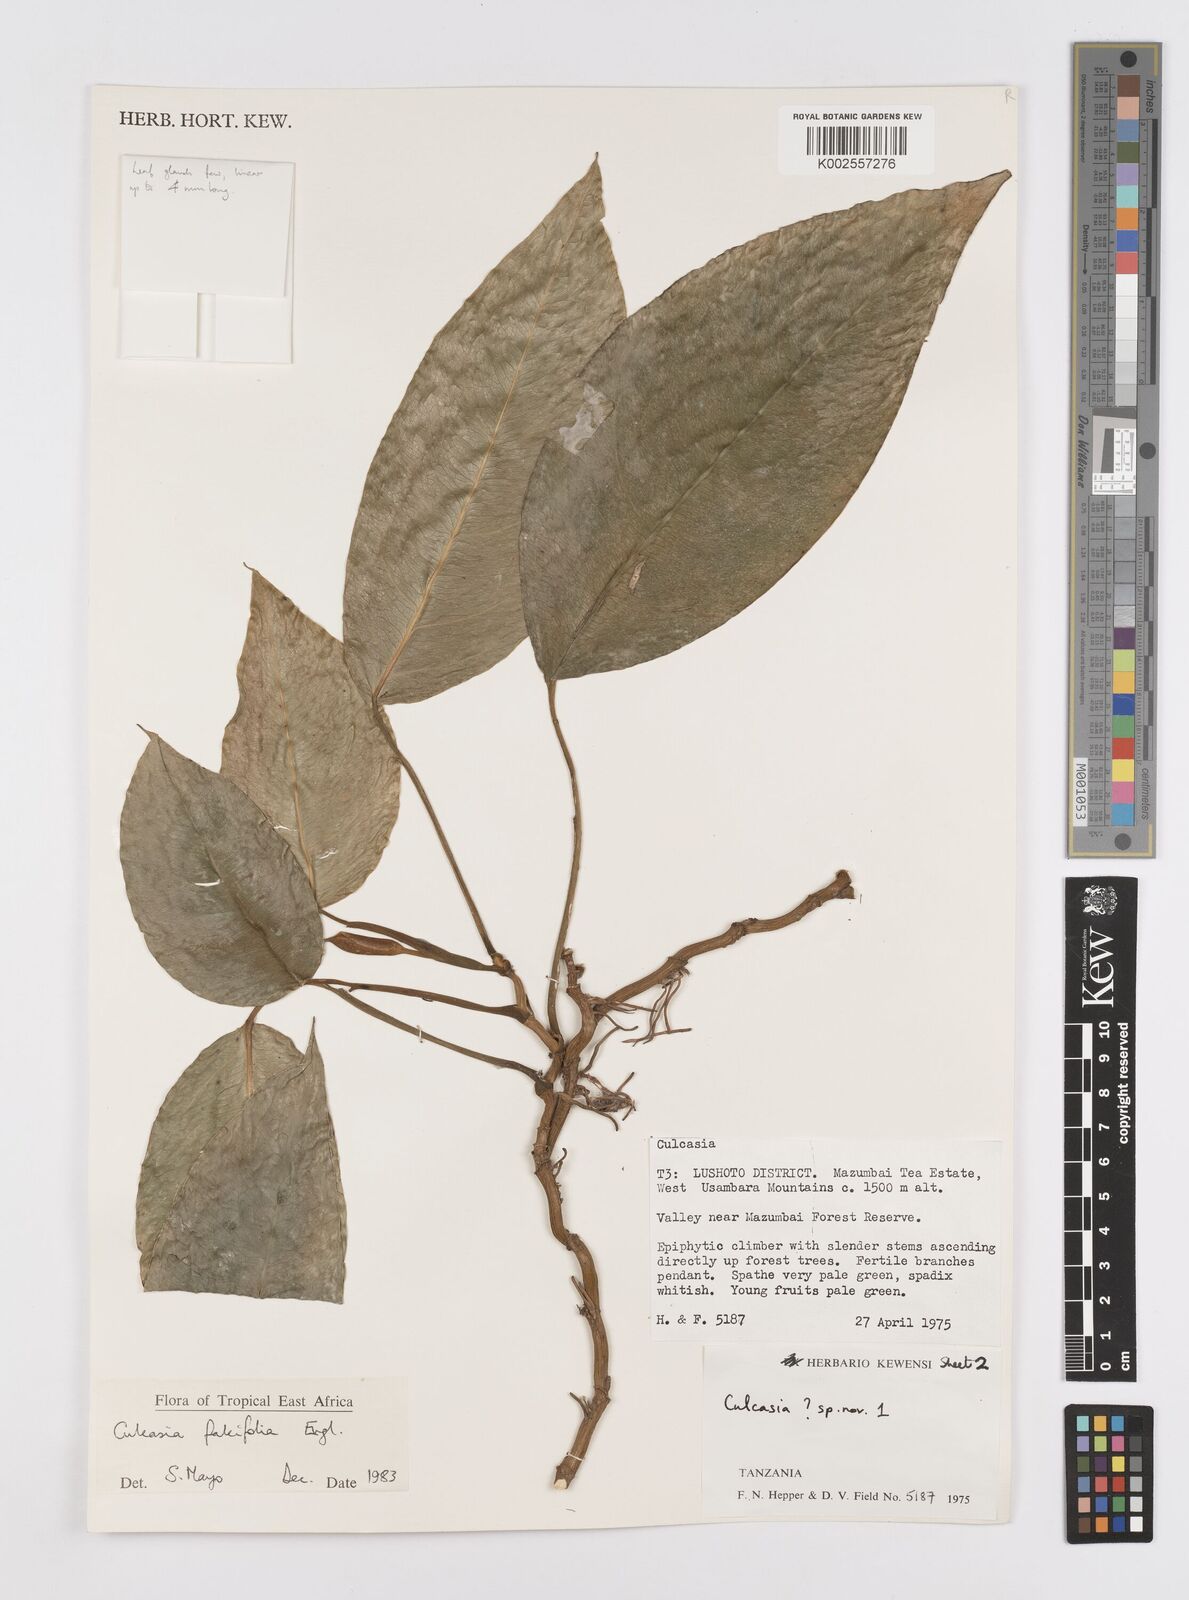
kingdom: Plantae
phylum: Tracheophyta
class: Liliopsida
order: Alismatales
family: Araceae
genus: Culcasia
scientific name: Culcasia falcifolia
